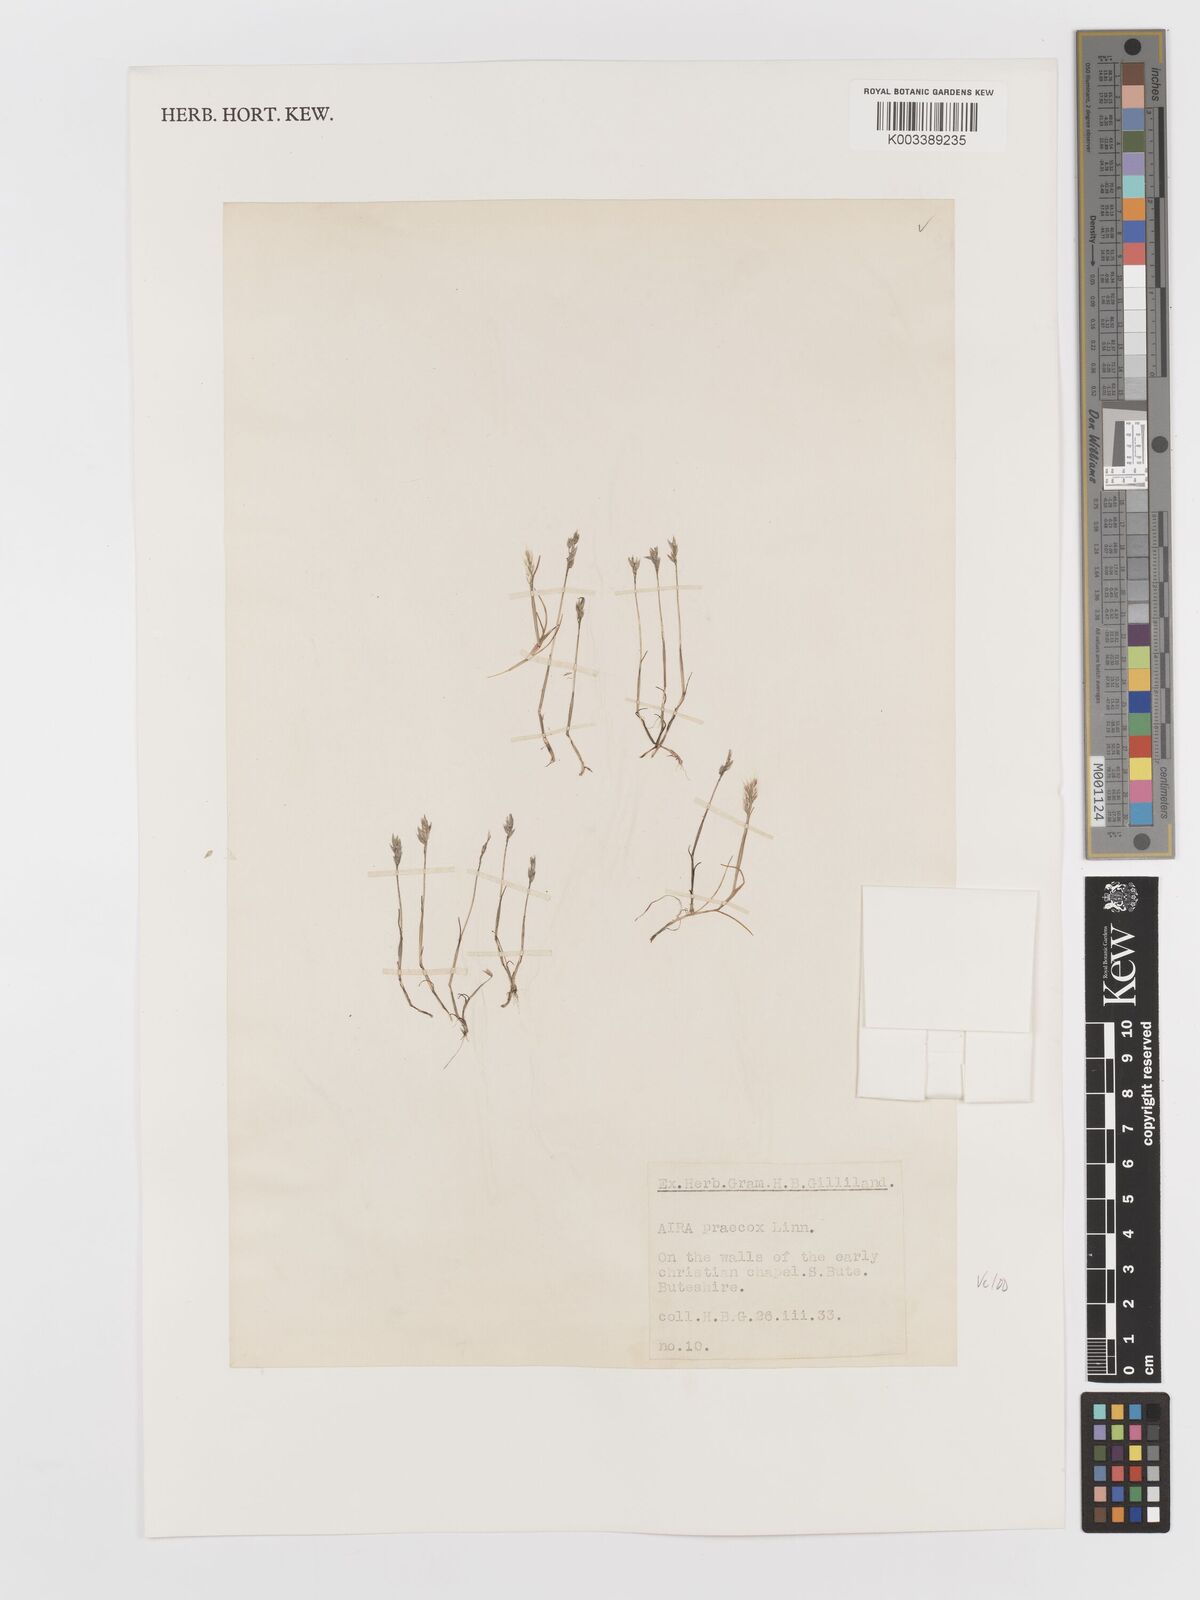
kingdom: Plantae
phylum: Tracheophyta
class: Liliopsida
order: Poales
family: Poaceae
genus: Aira
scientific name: Aira praecox
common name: Early hair-grass
